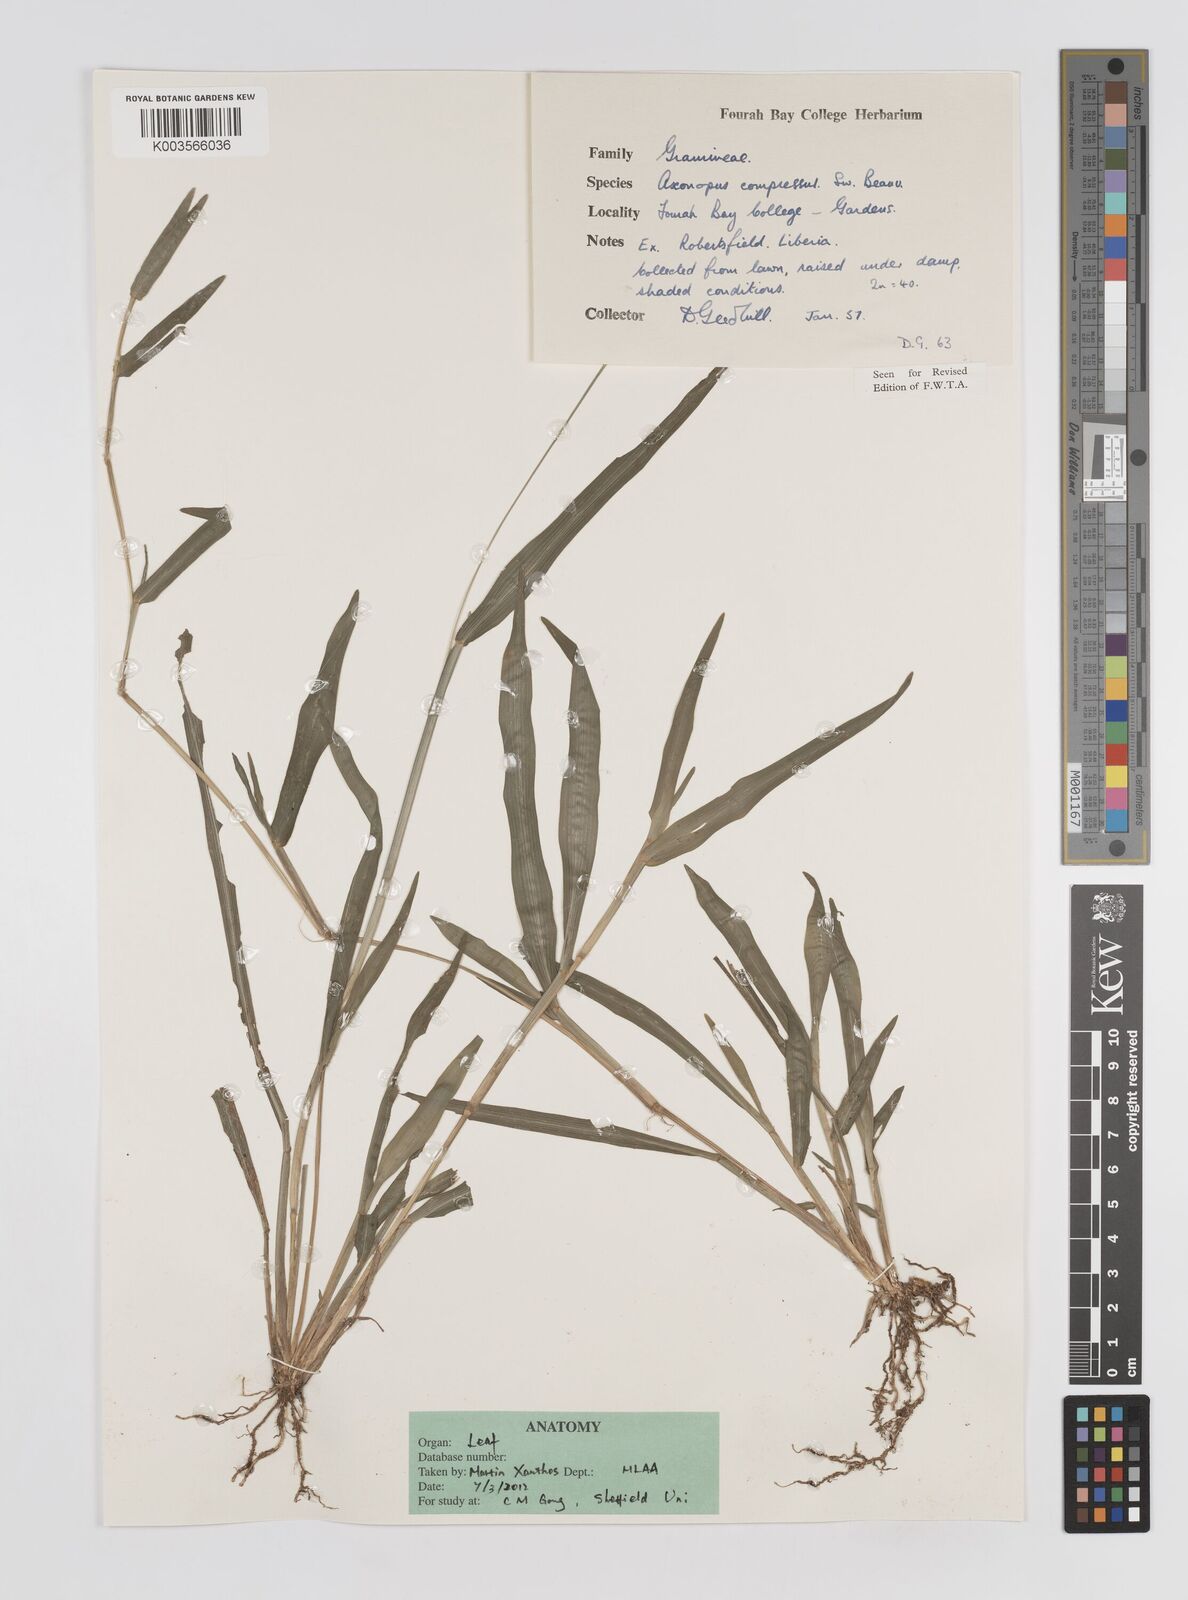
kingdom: Plantae
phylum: Tracheophyta
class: Liliopsida
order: Poales
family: Poaceae
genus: Axonopus
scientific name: Axonopus compressus
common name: American carpet grass
